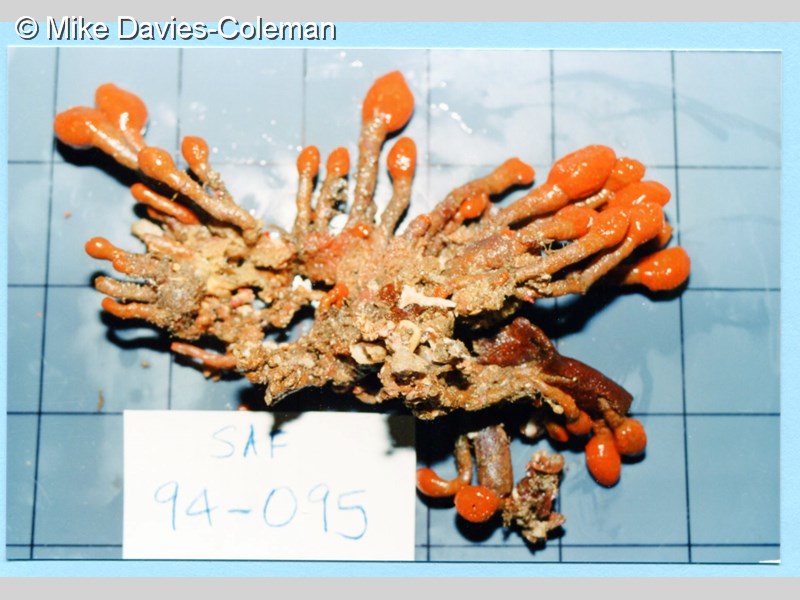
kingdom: Animalia
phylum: Chordata
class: Ascidiacea
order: Aplousobranchia
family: Pseudodistomidae
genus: Pseudodistoma
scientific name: Pseudodistoma africanum
